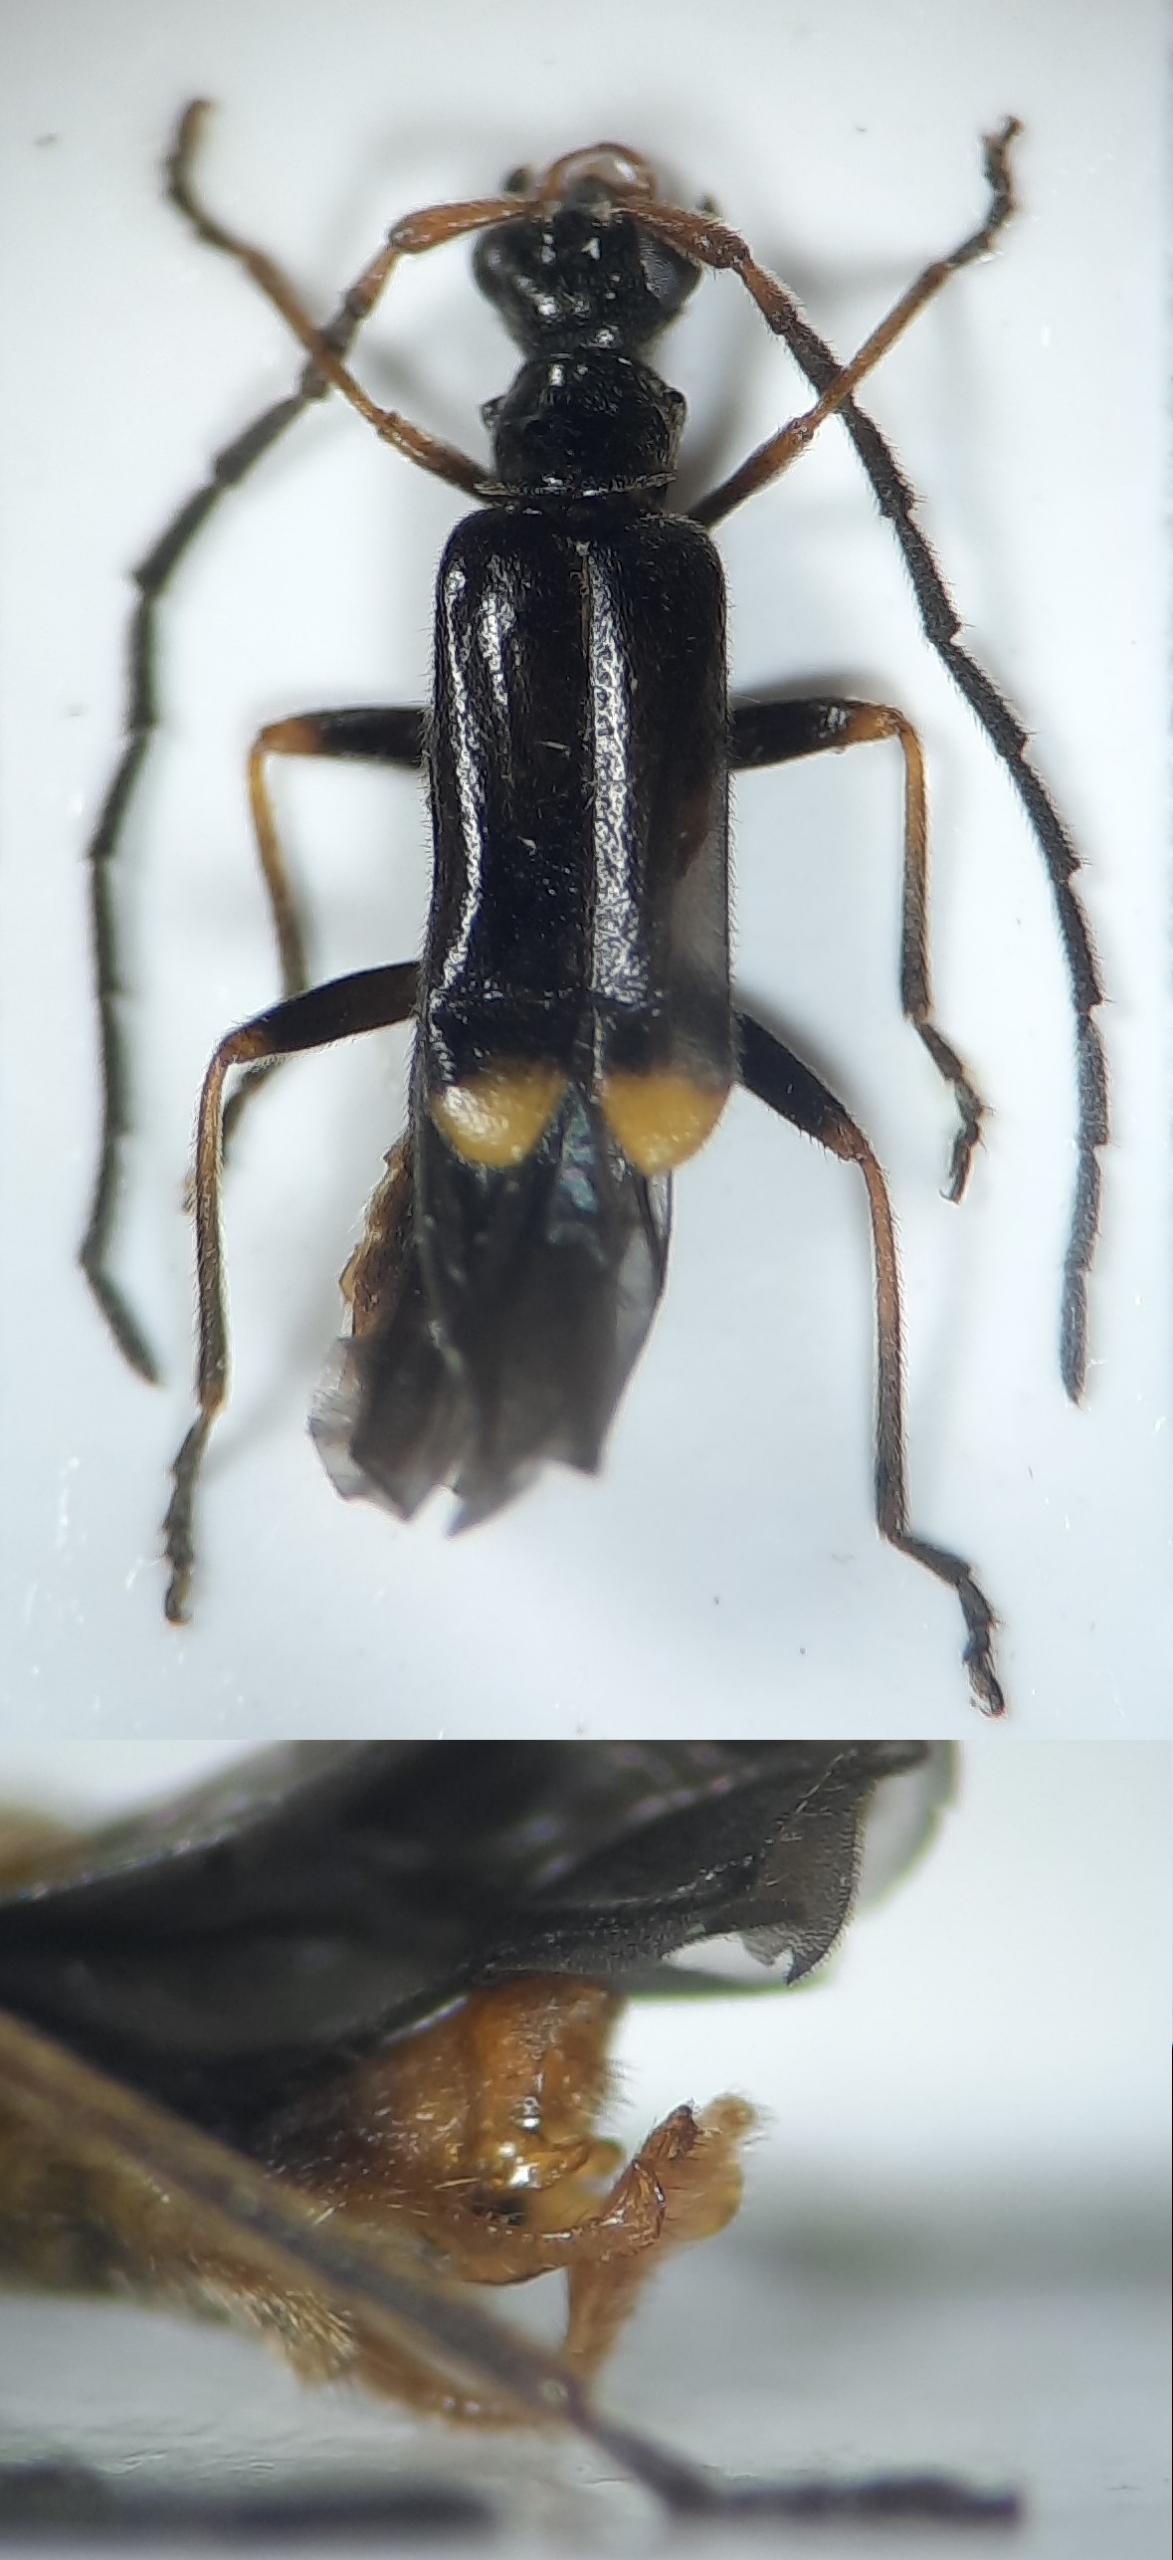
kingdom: Animalia
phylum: Arthropoda
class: Insecta
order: Coleoptera
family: Cantharidae
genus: Malthodes
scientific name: Malthodes dispar
